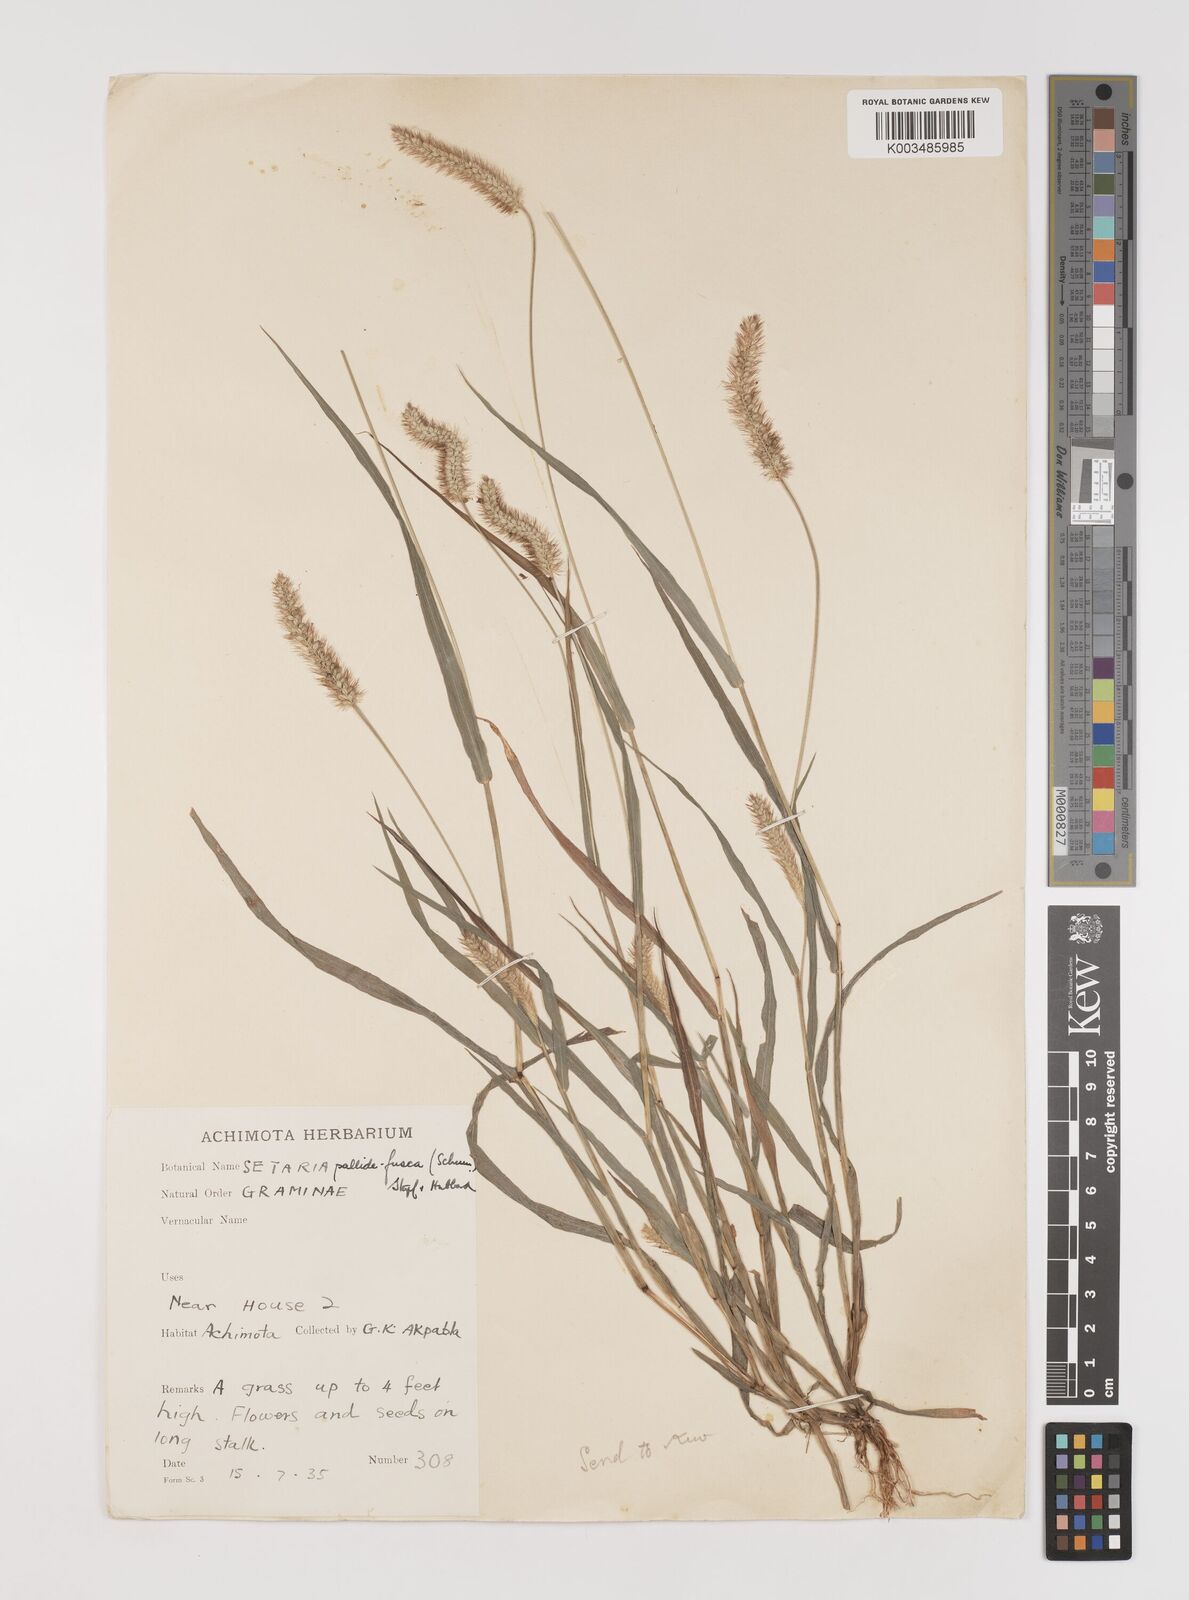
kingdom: Plantae
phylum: Tracheophyta
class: Liliopsida
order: Poales
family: Poaceae
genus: Setaria
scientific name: Setaria pumila
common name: Yellow bristle-grass
